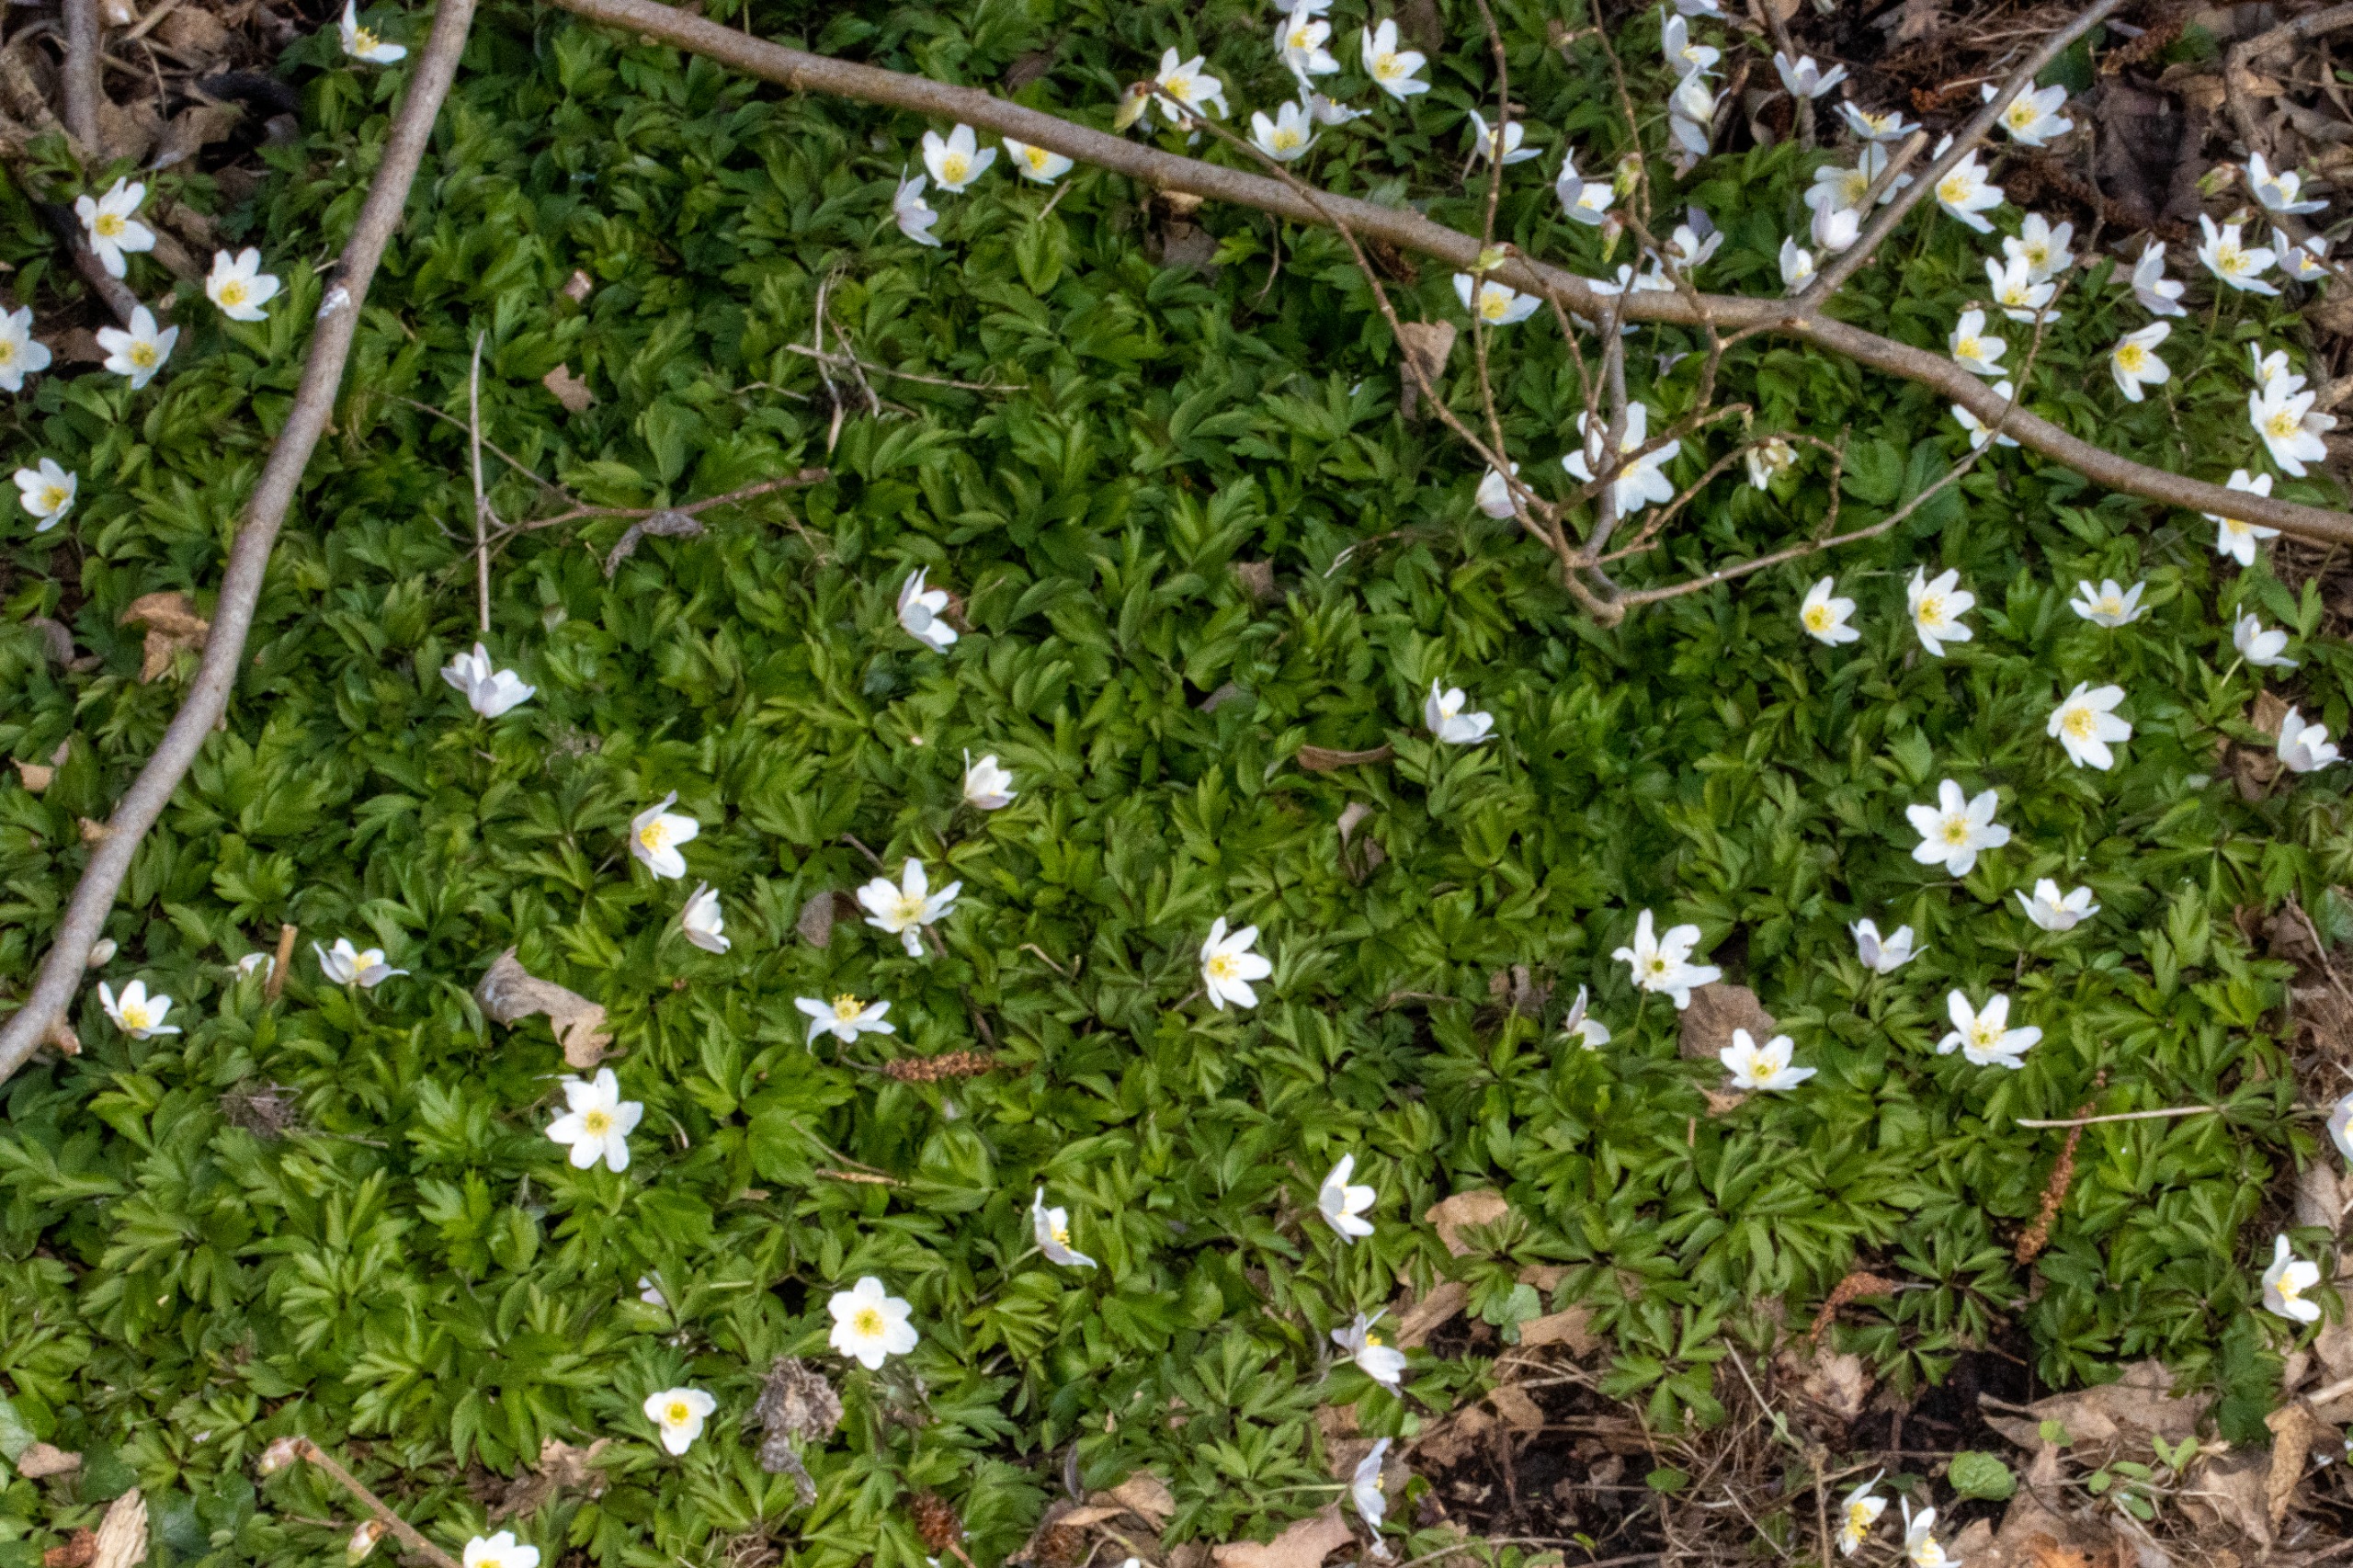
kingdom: Plantae
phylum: Tracheophyta
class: Magnoliopsida
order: Ranunculales
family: Ranunculaceae
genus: Anemone
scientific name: Anemone nemorosa
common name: Hvid anemone
